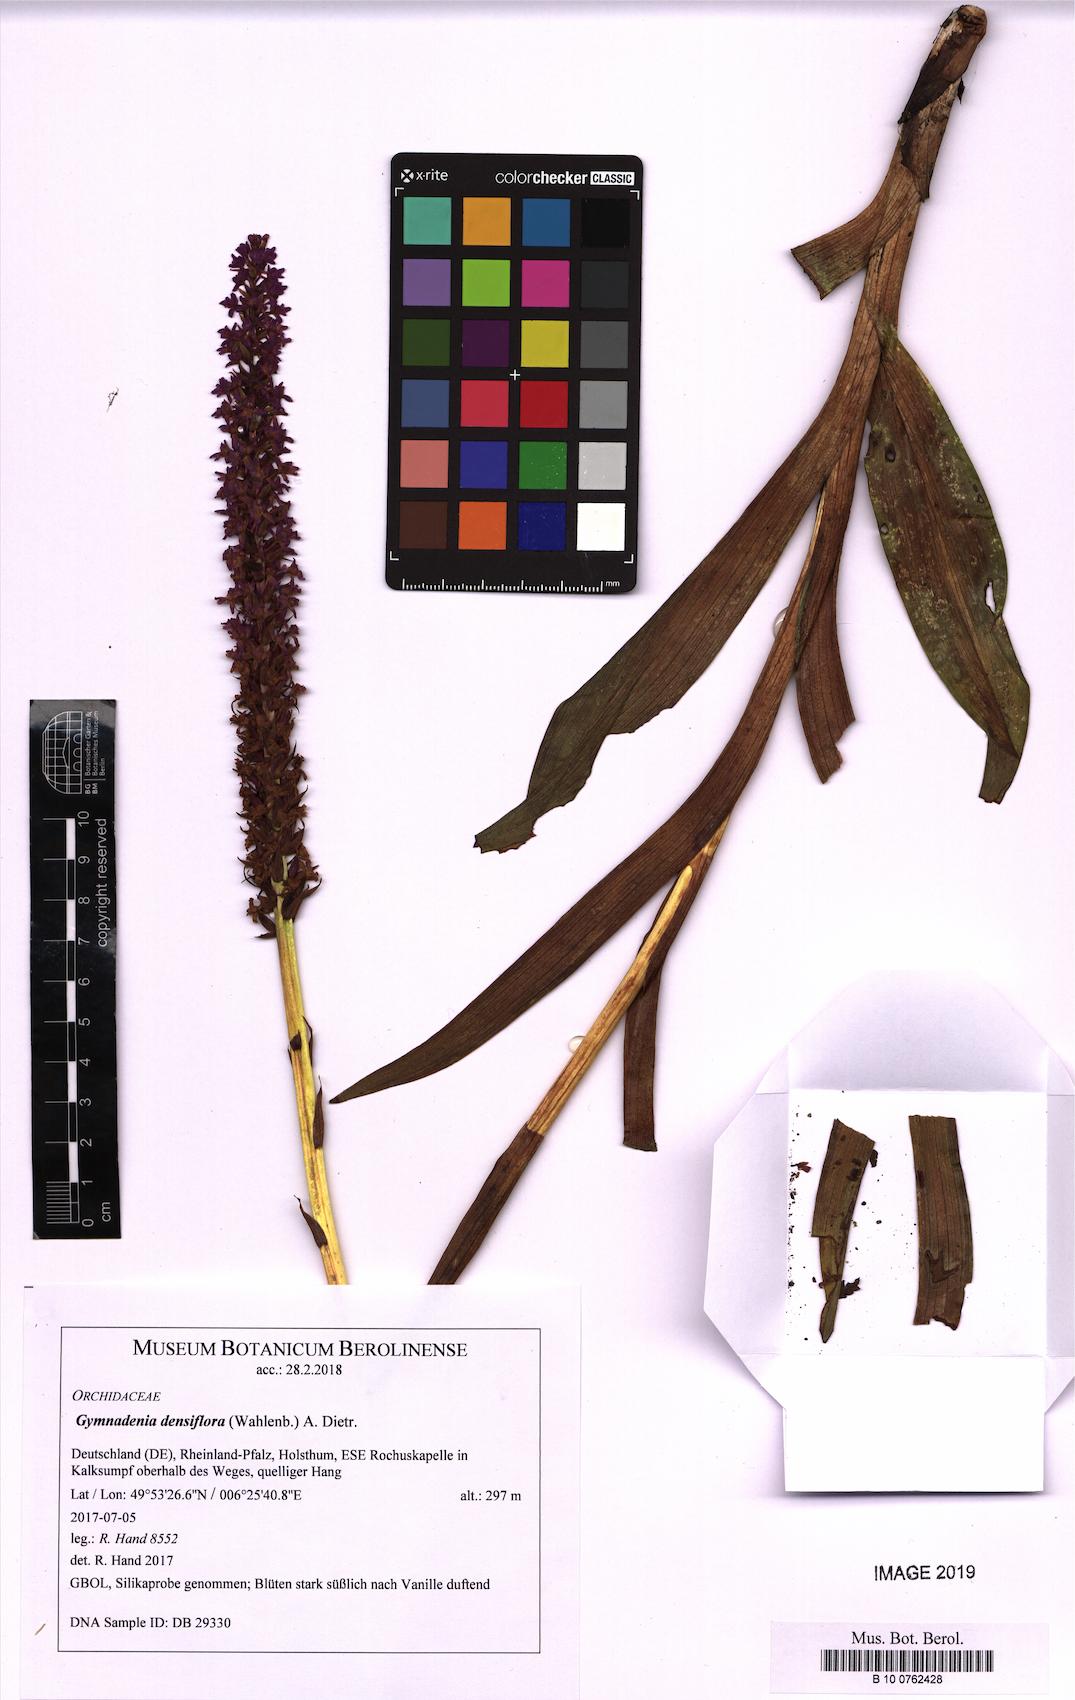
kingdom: Plantae
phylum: Tracheophyta
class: Liliopsida
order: Asparagales
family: Orchidaceae
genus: Gymnadenia
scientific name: Gymnadenia densiflora
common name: Marsh fragrant-orchid
